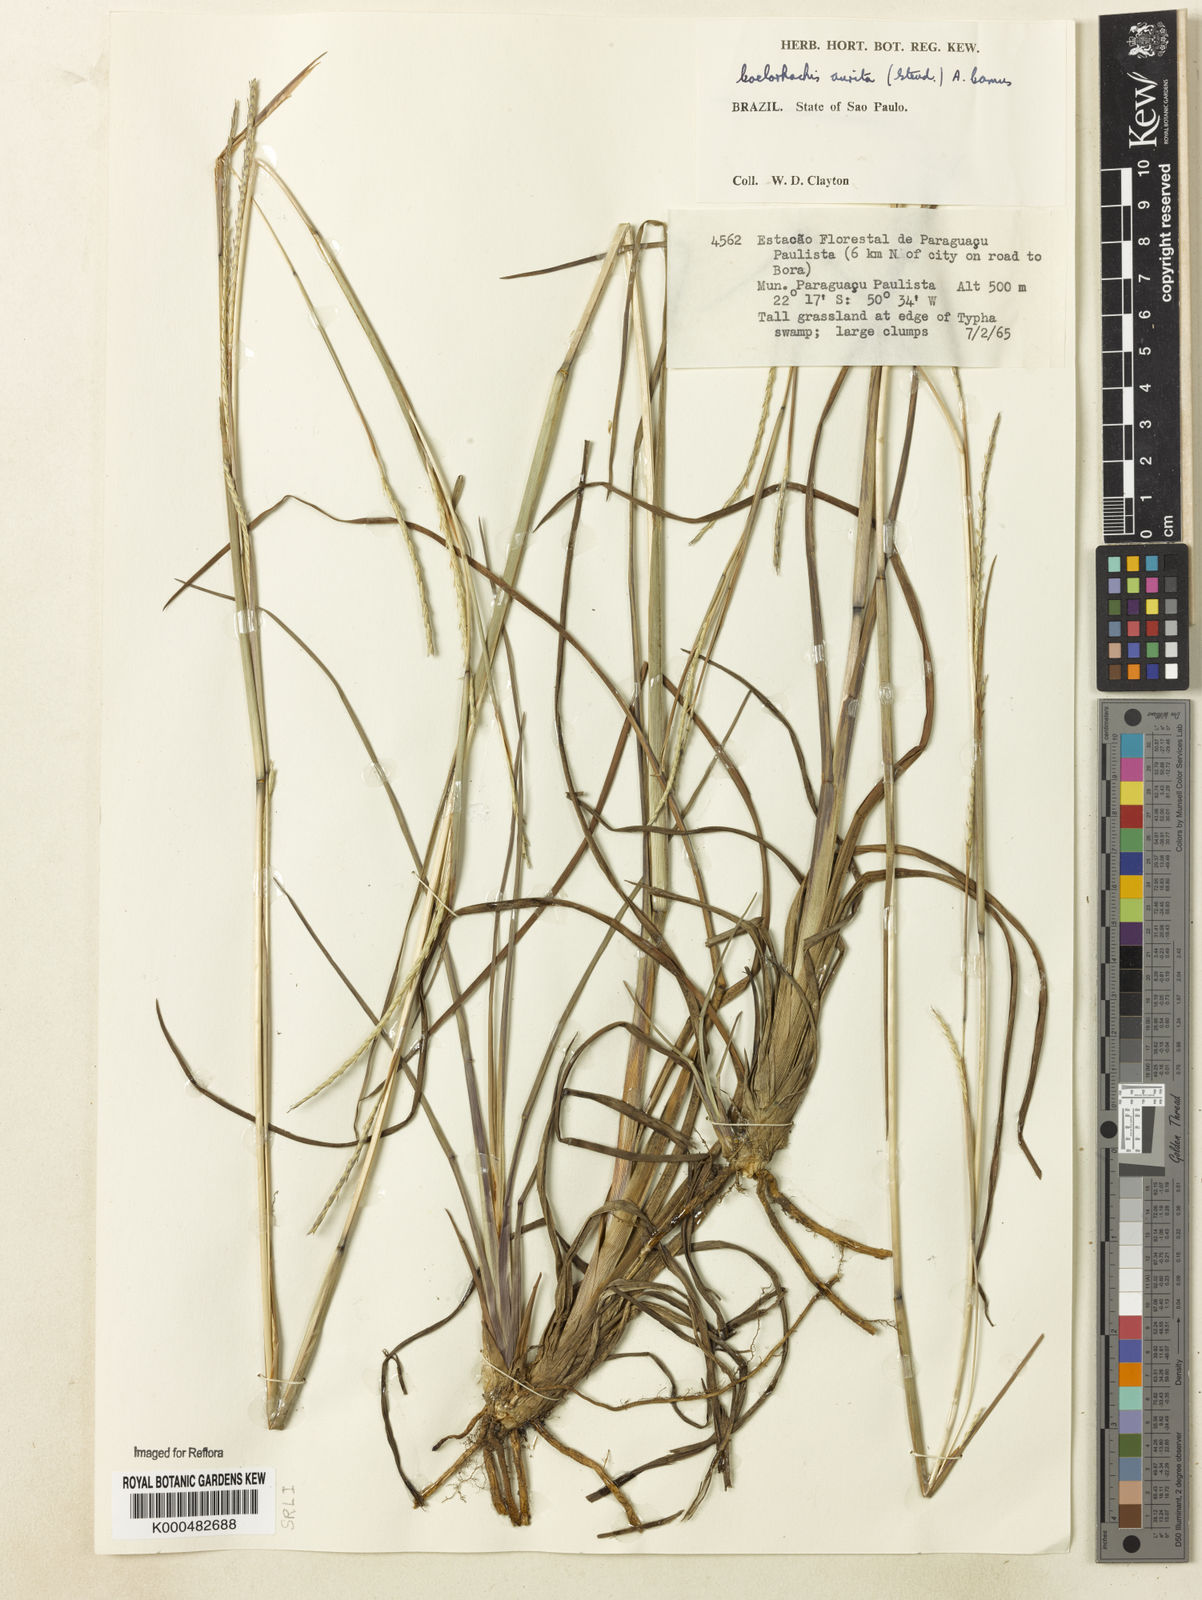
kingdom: Plantae
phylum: Tracheophyta
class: Liliopsida
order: Poales
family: Poaceae
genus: Rottboellia
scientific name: Rottboellia aurita
